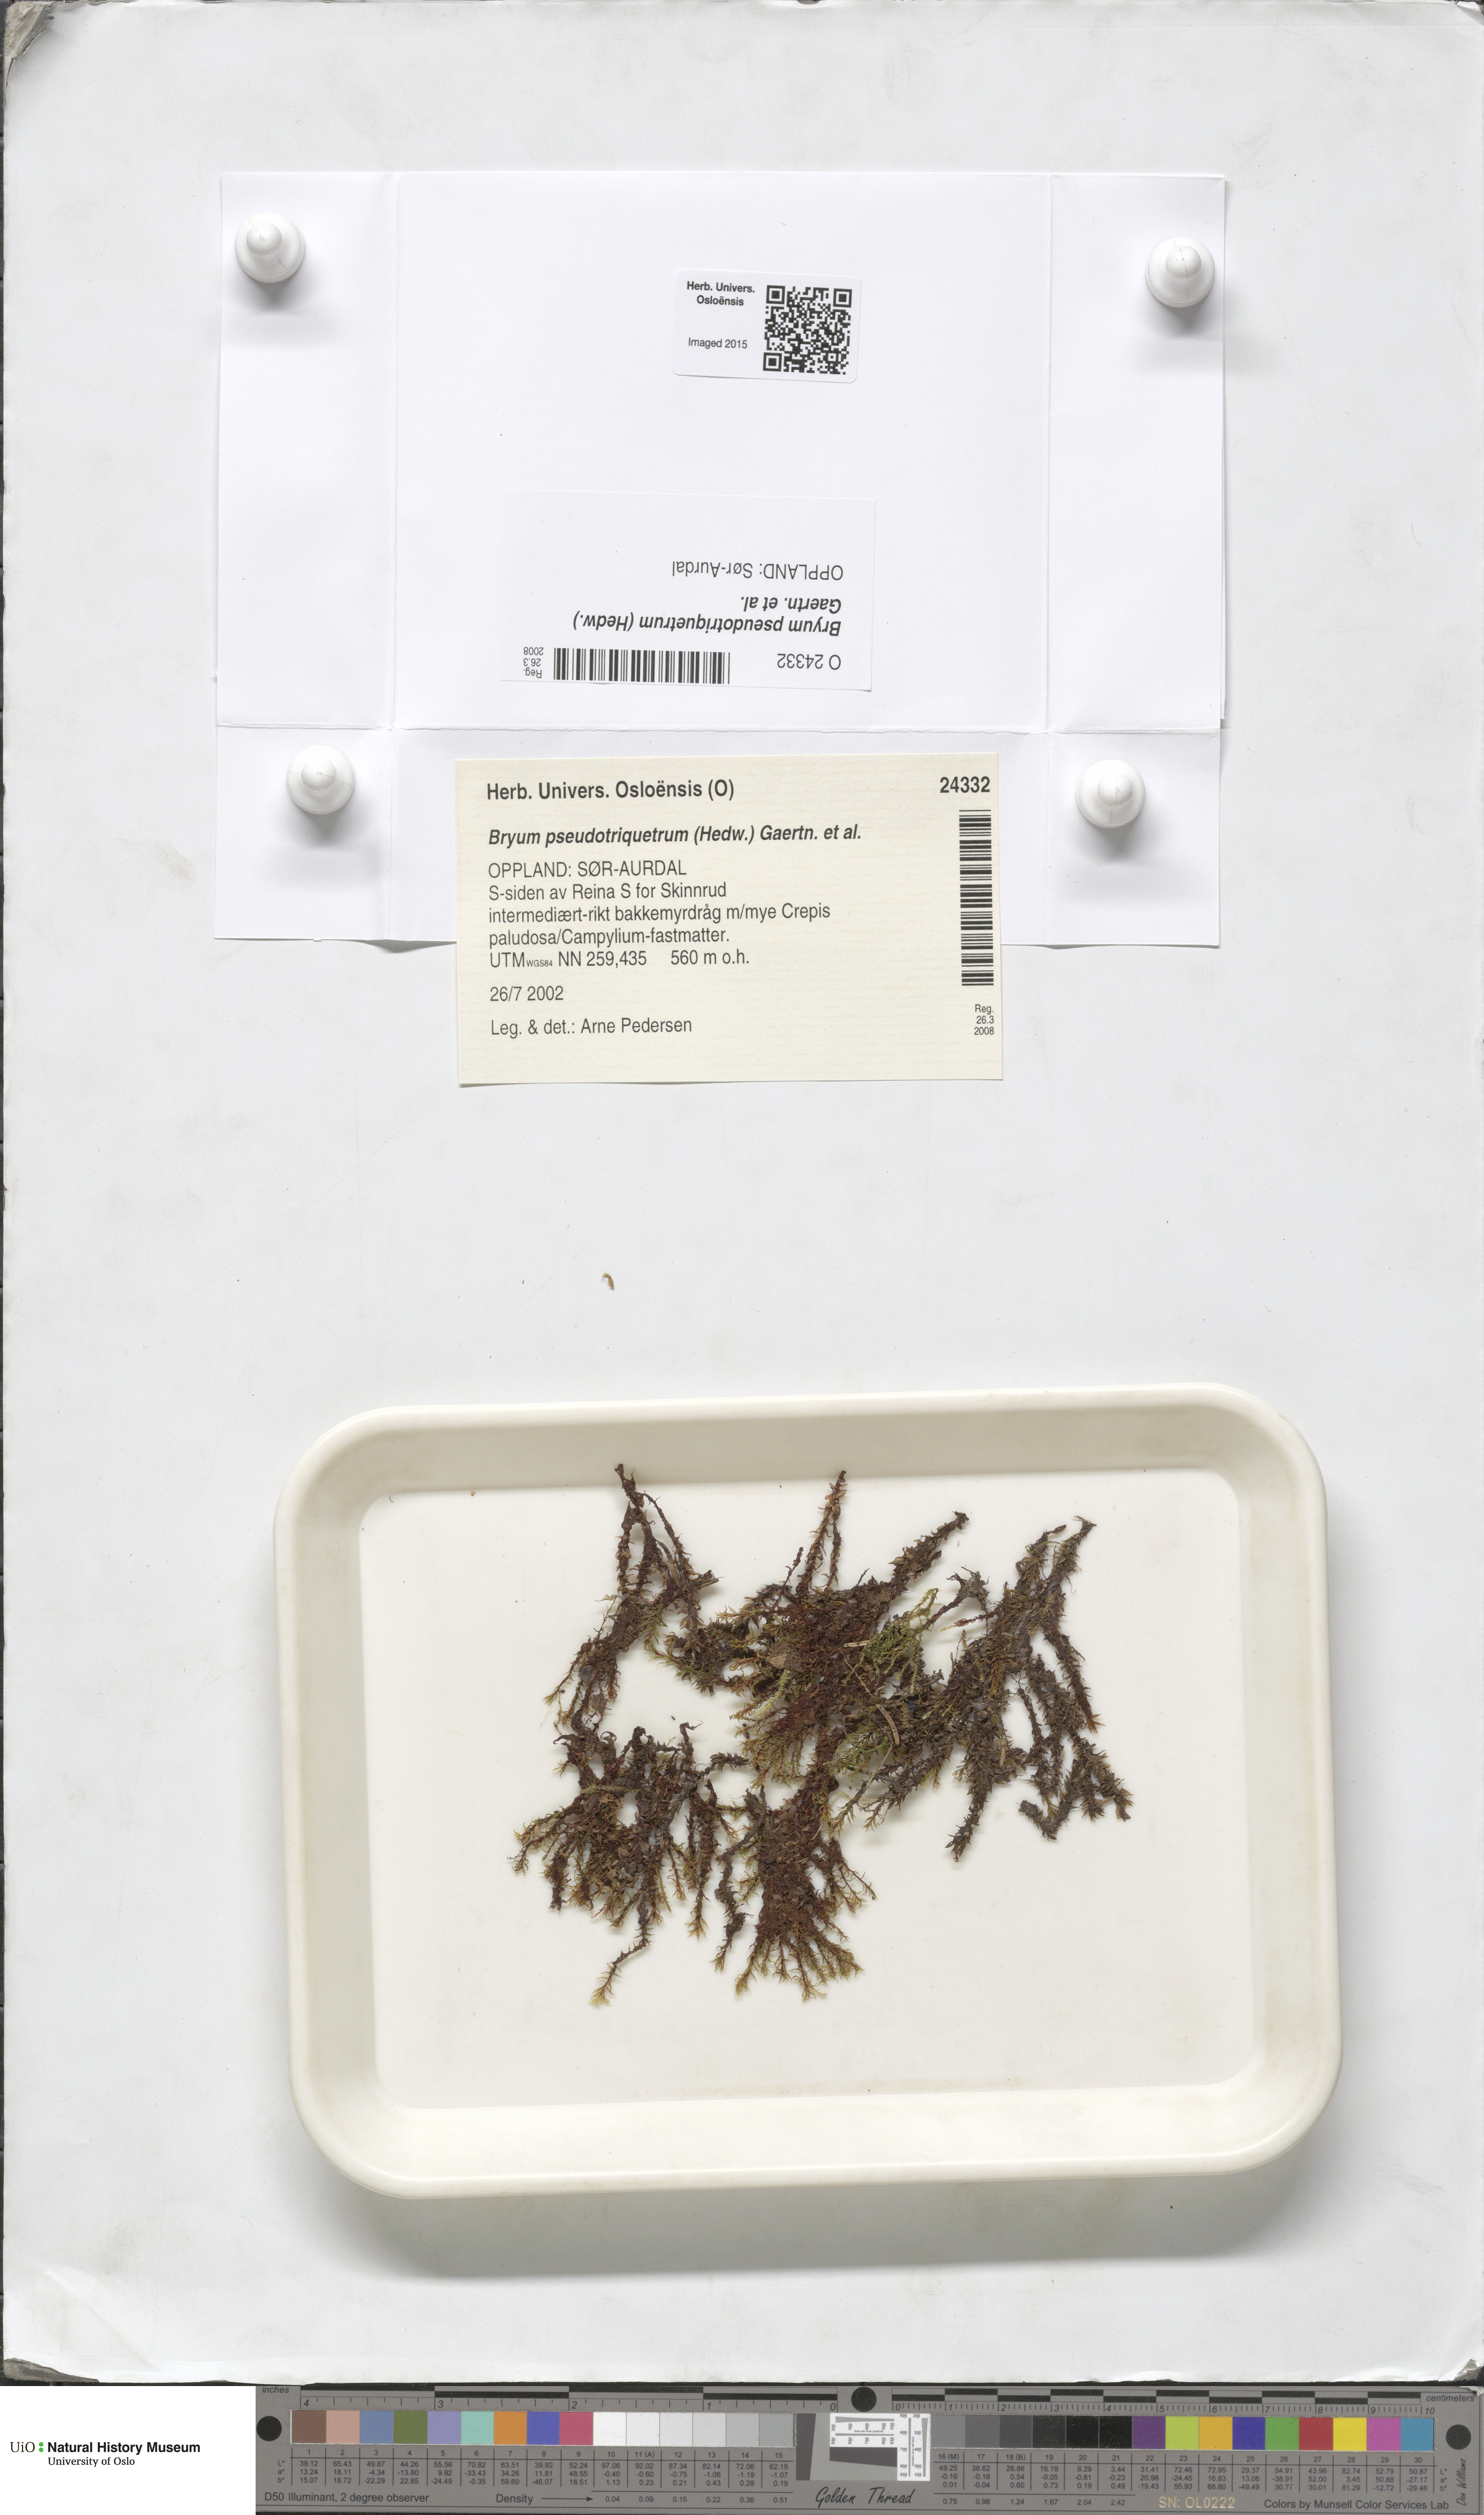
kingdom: Plantae
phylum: Bryophyta
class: Bryopsida
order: Bryales
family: Bryaceae
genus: Ptychostomum
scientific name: Ptychostomum pseudotriquetrum
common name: Long-leaved thread moss
